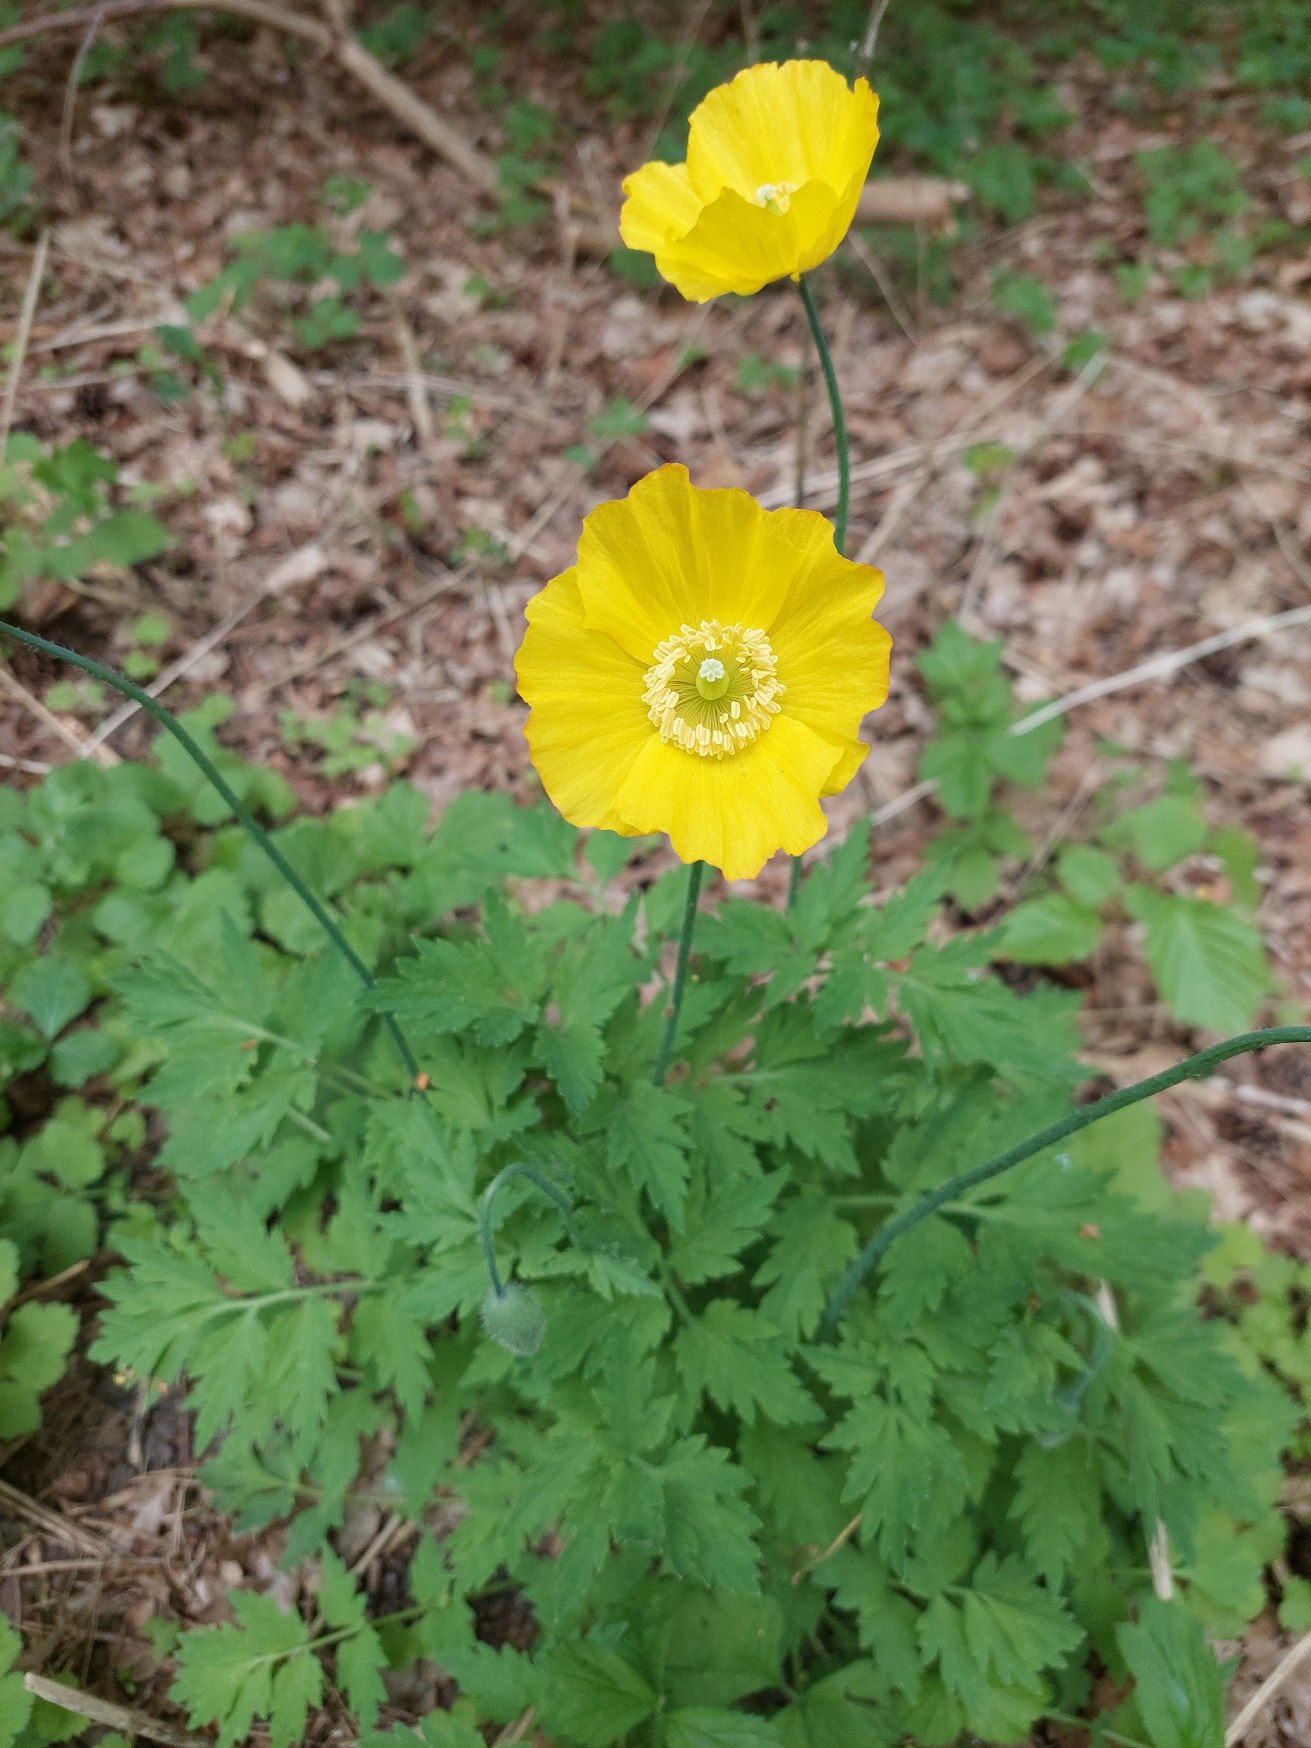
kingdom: Plantae
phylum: Tracheophyta
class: Magnoliopsida
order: Ranunculales
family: Papaveraceae
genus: Papaver
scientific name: Papaver cambricum
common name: Skov-valmue
